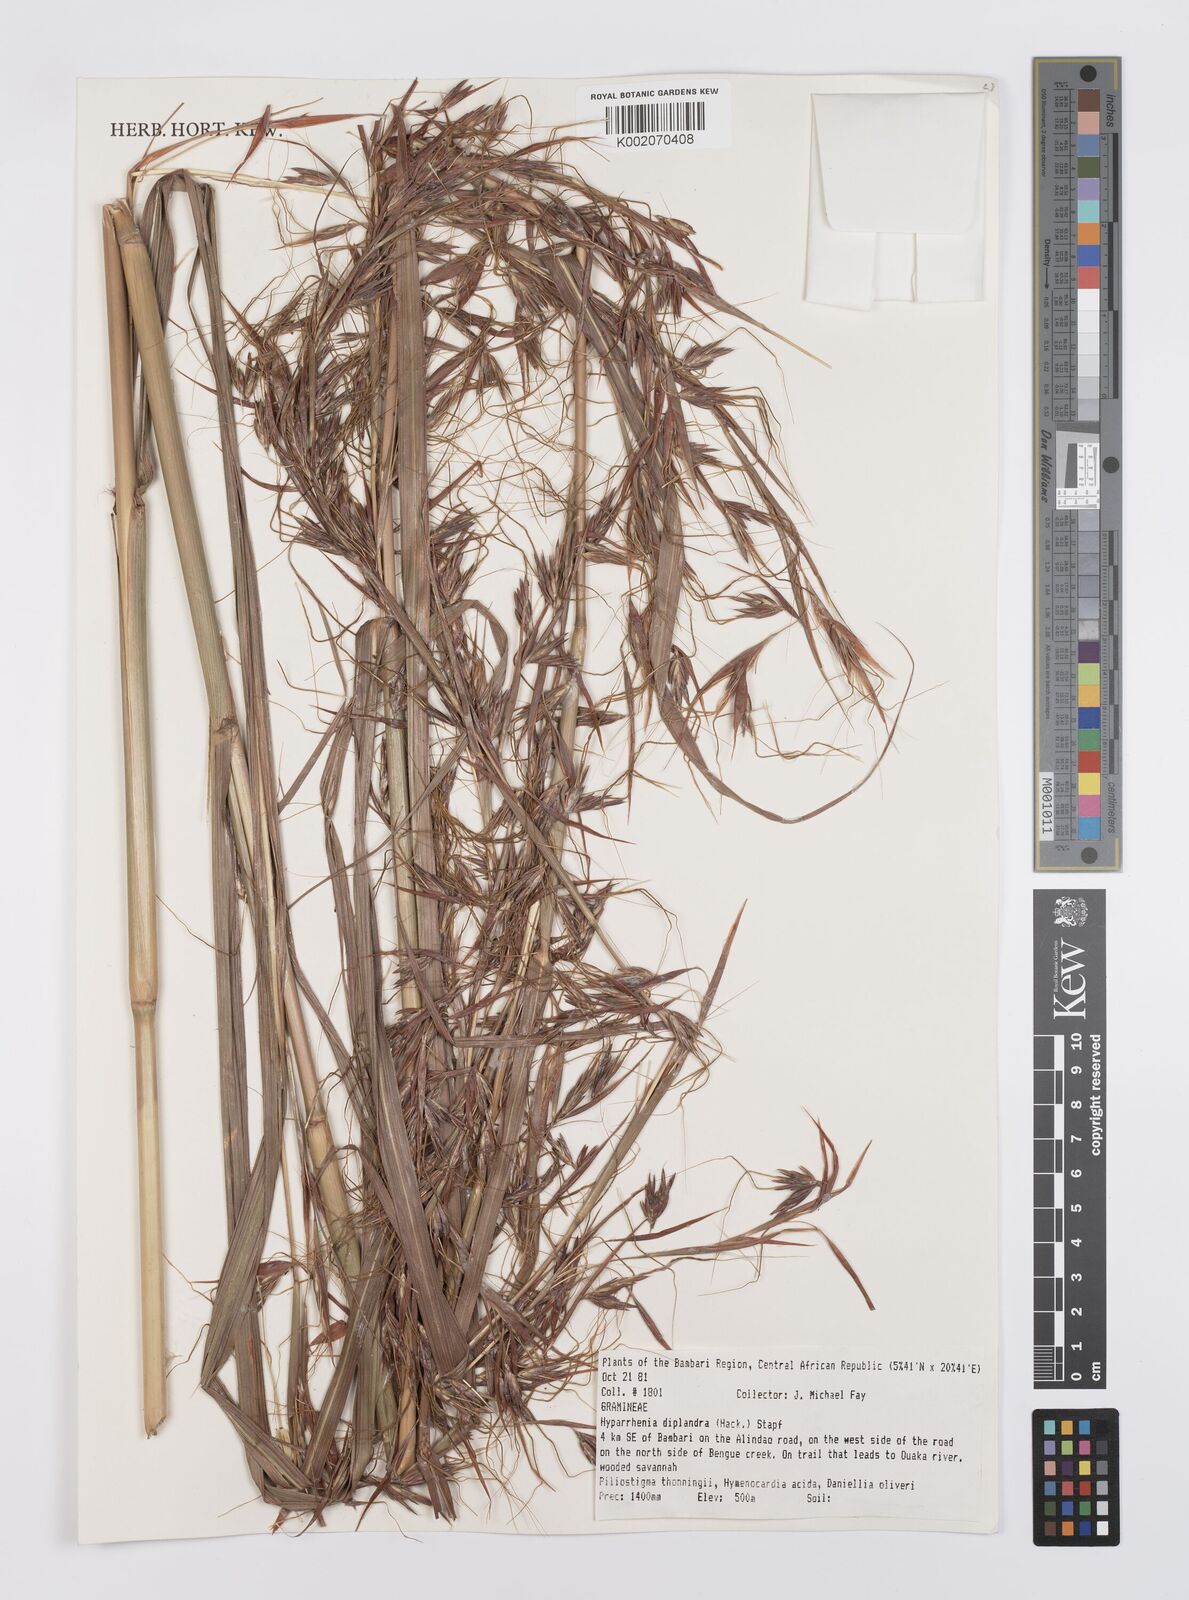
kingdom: Plantae
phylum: Tracheophyta
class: Liliopsida
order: Poales
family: Poaceae
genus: Hyparrhenia
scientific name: Hyparrhenia diplandra
